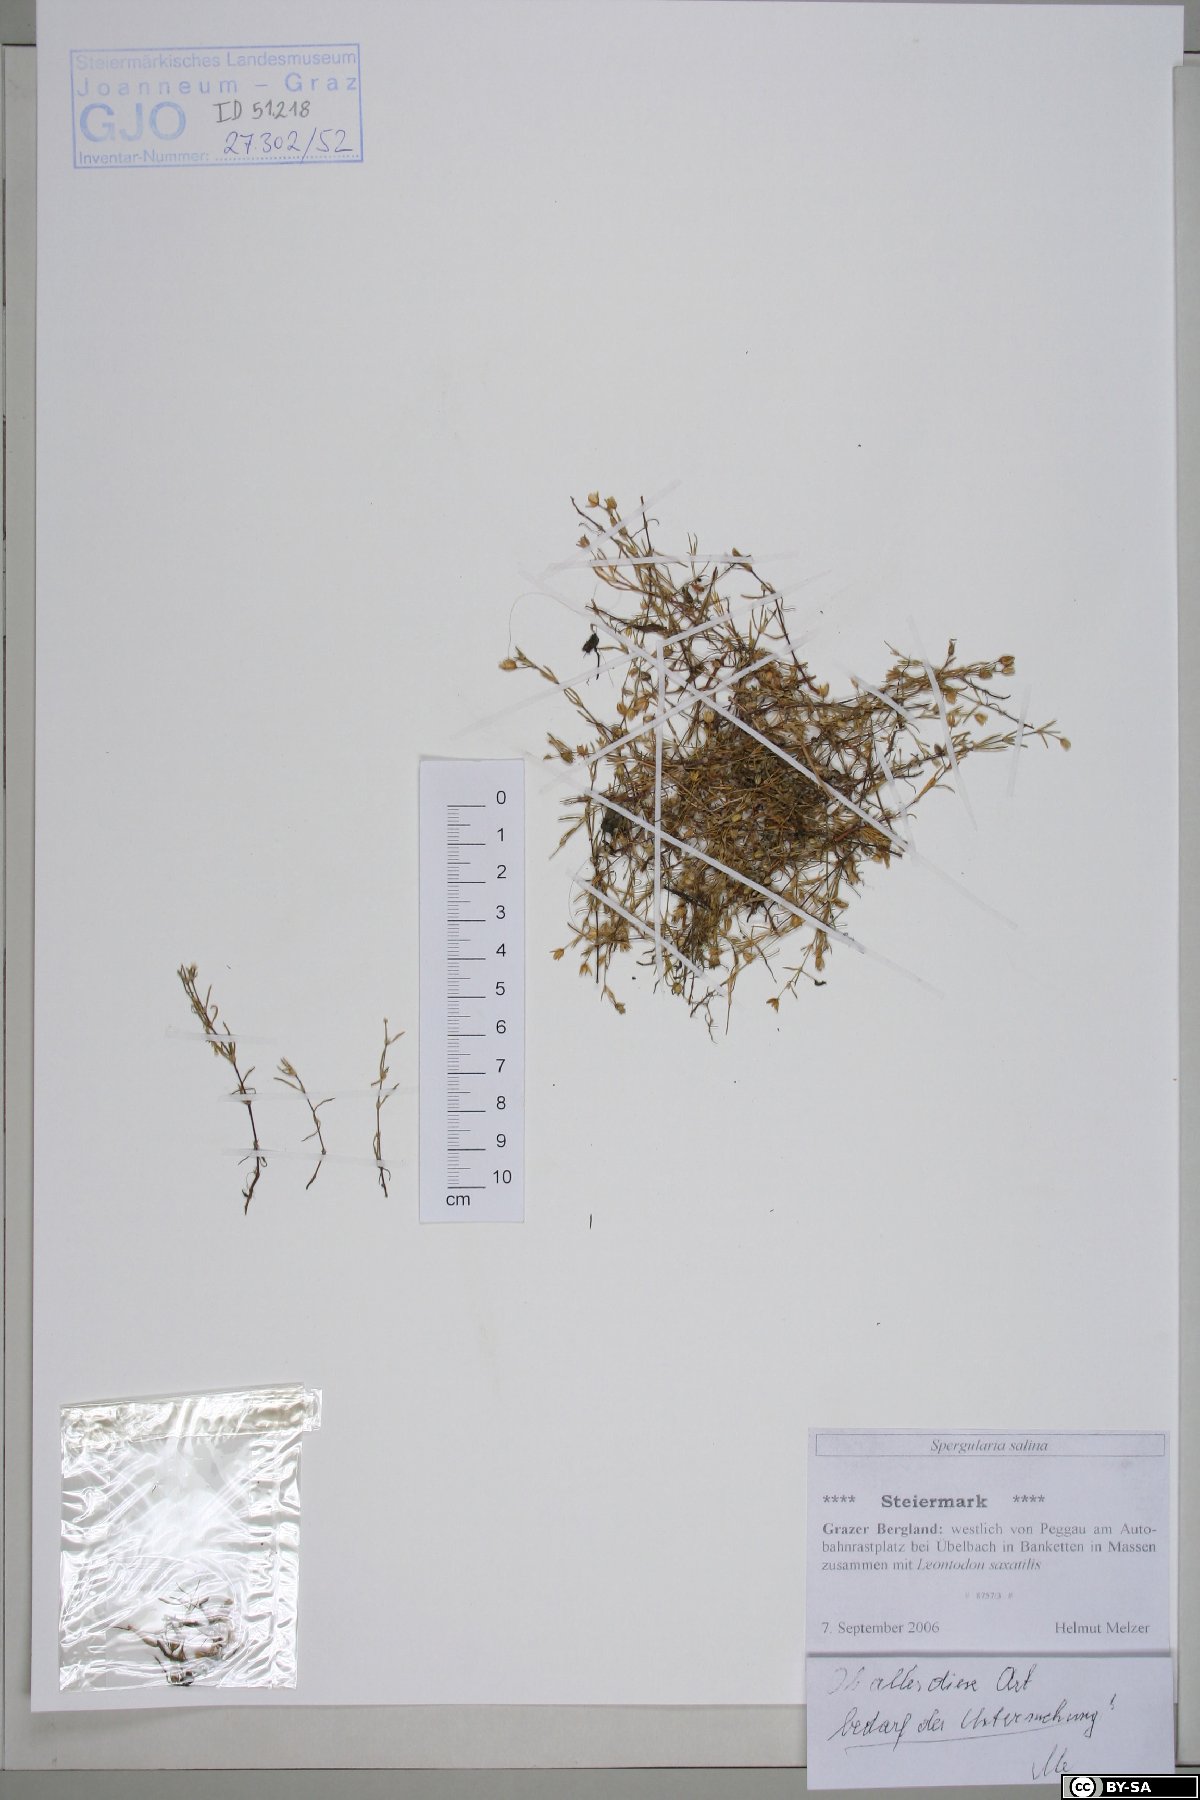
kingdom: Plantae
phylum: Tracheophyta
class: Magnoliopsida
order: Caryophyllales
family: Caryophyllaceae
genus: Spergularia
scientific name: Spergularia marina
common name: Lesser sea-spurrey
